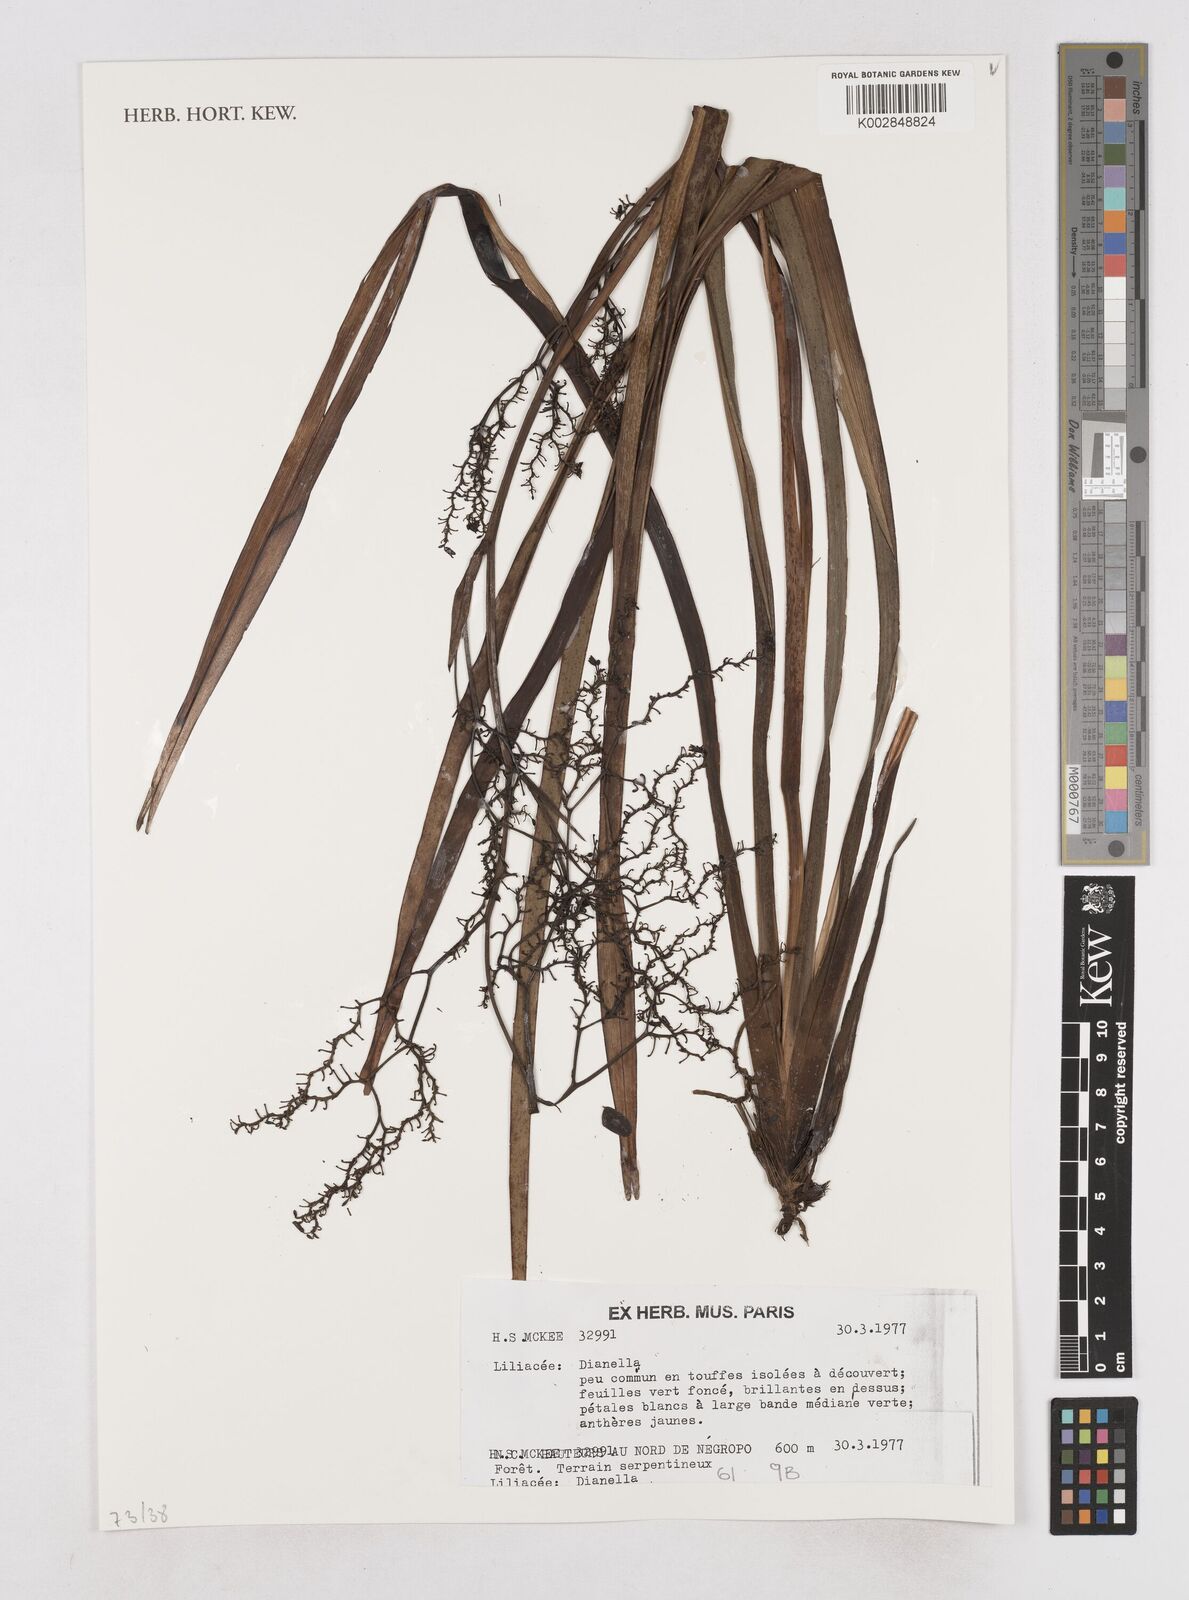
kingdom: Plantae
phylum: Tracheophyta
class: Liliopsida
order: Asparagales
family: Asphodelaceae
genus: Dianella
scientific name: Dianella
